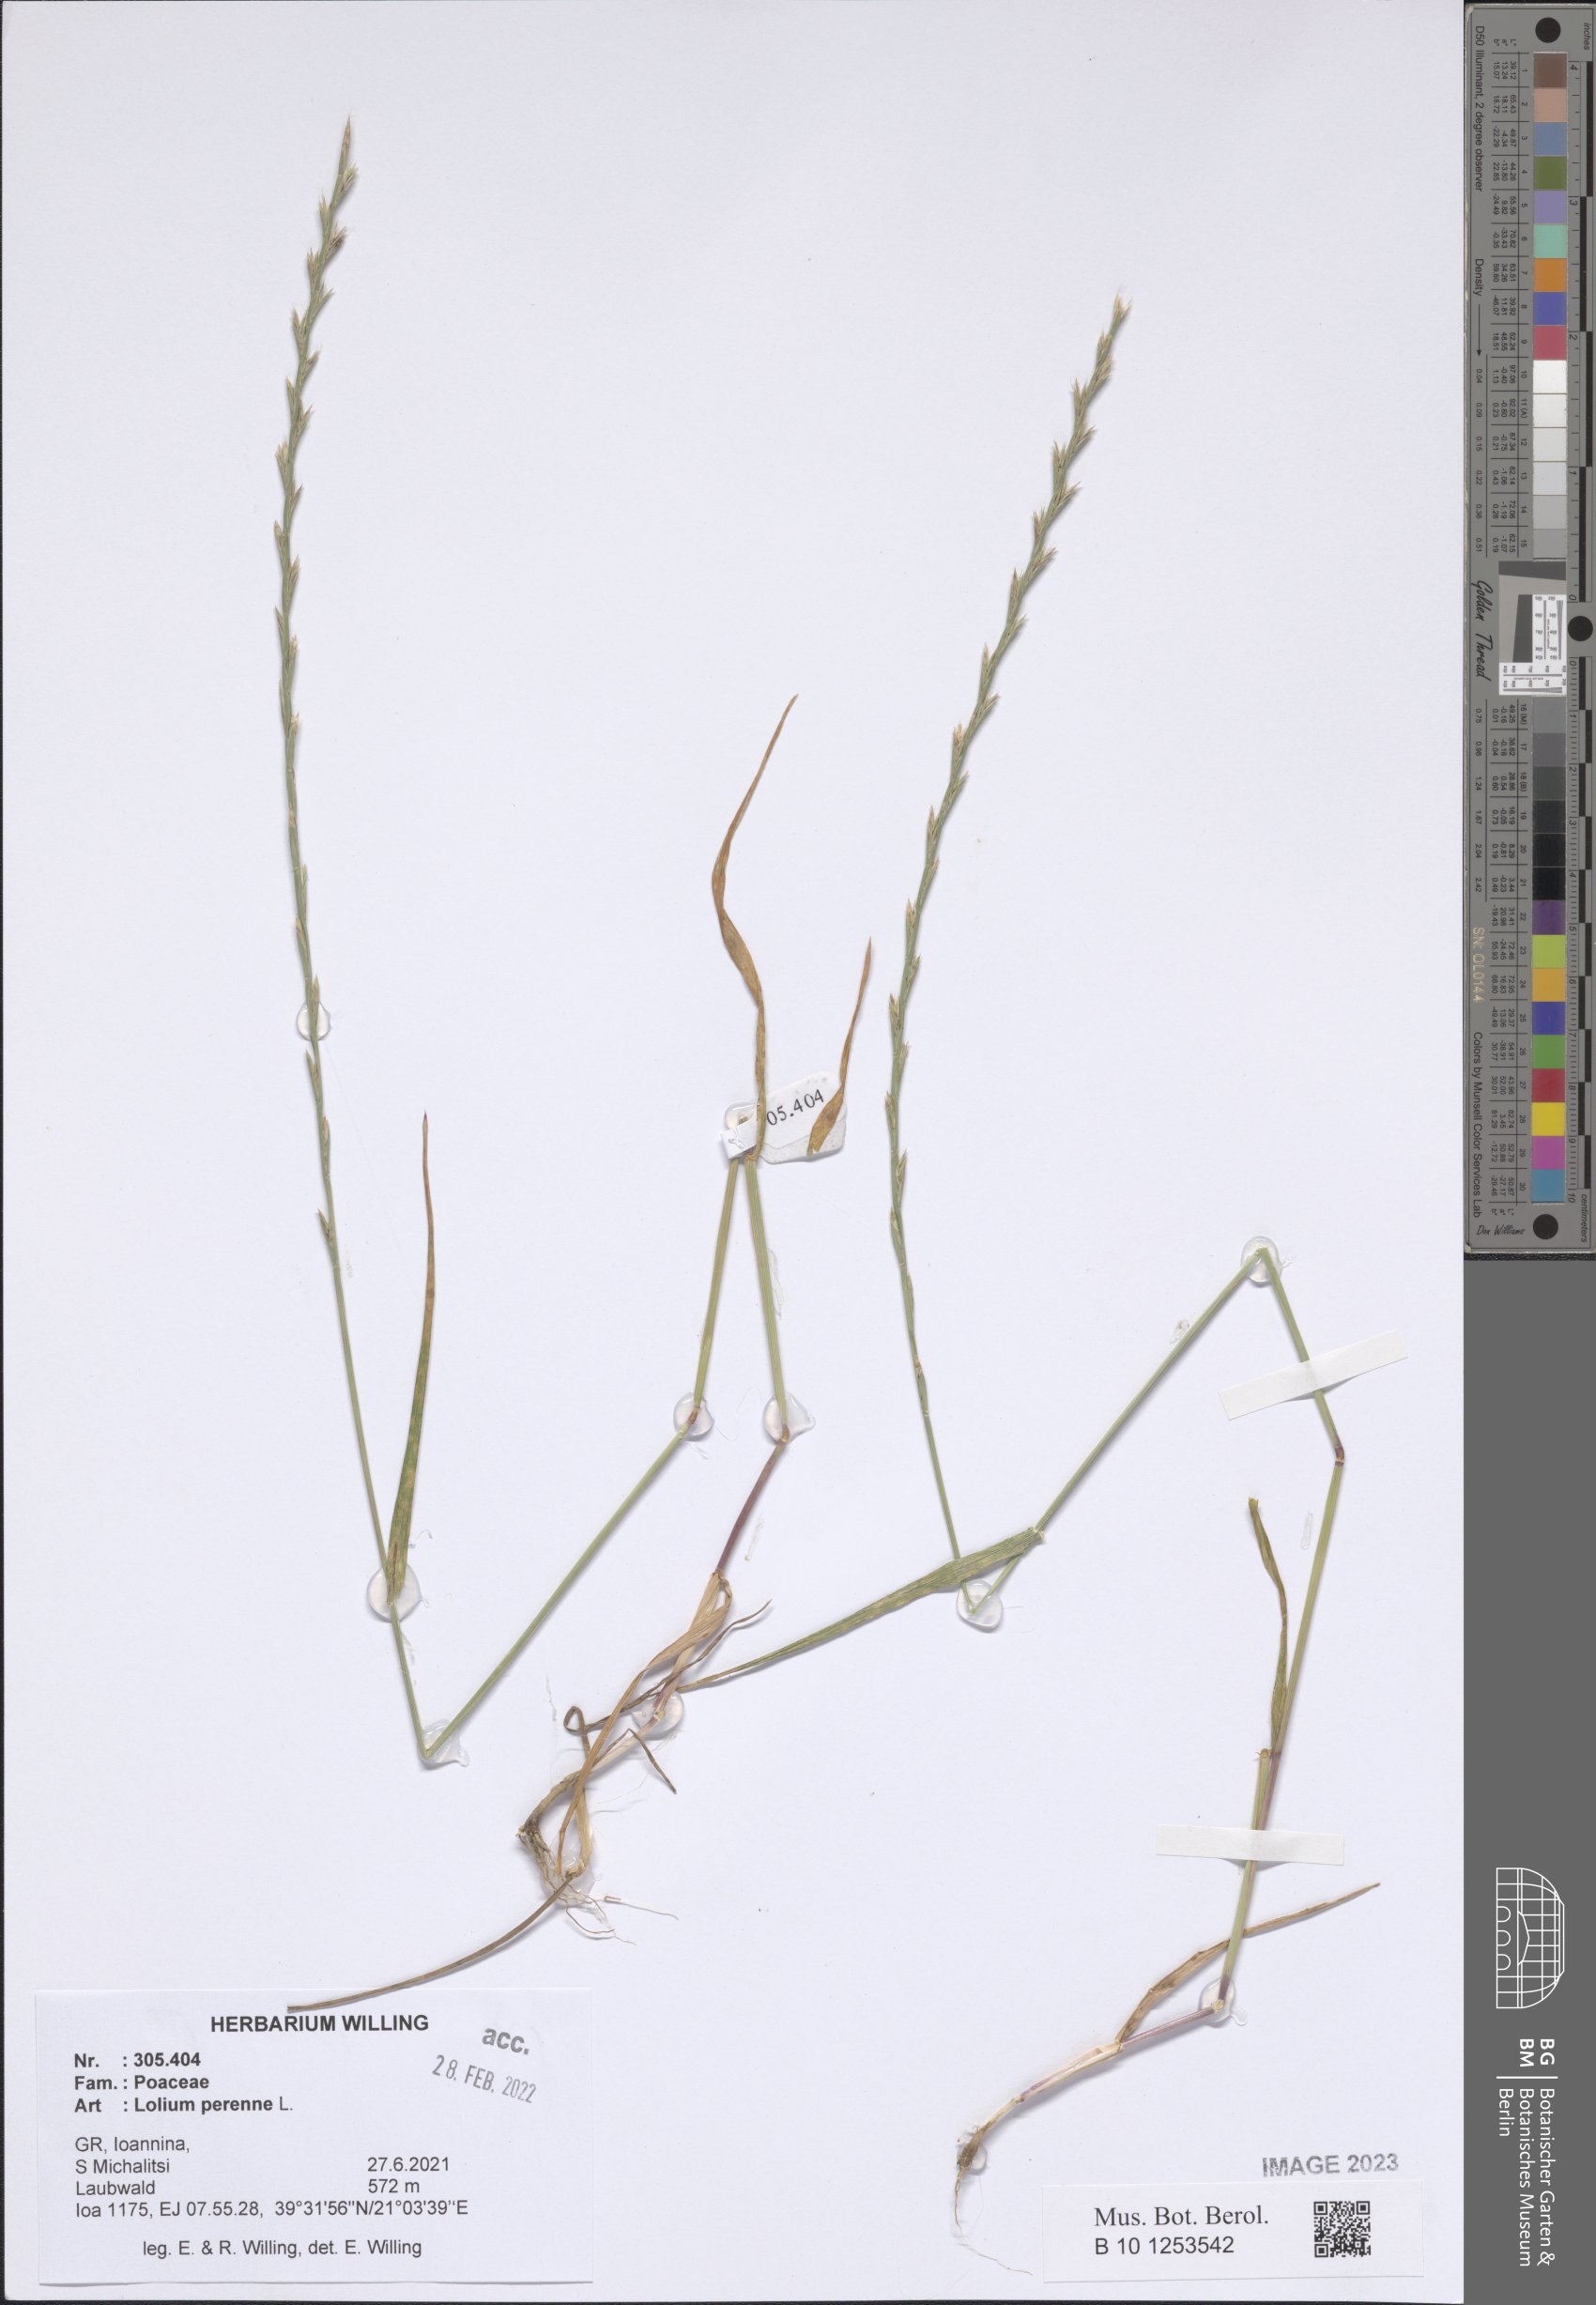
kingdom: Plantae
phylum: Tracheophyta
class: Liliopsida
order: Poales
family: Poaceae
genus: Lolium
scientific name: Lolium perenne
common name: Perennial ryegrass
